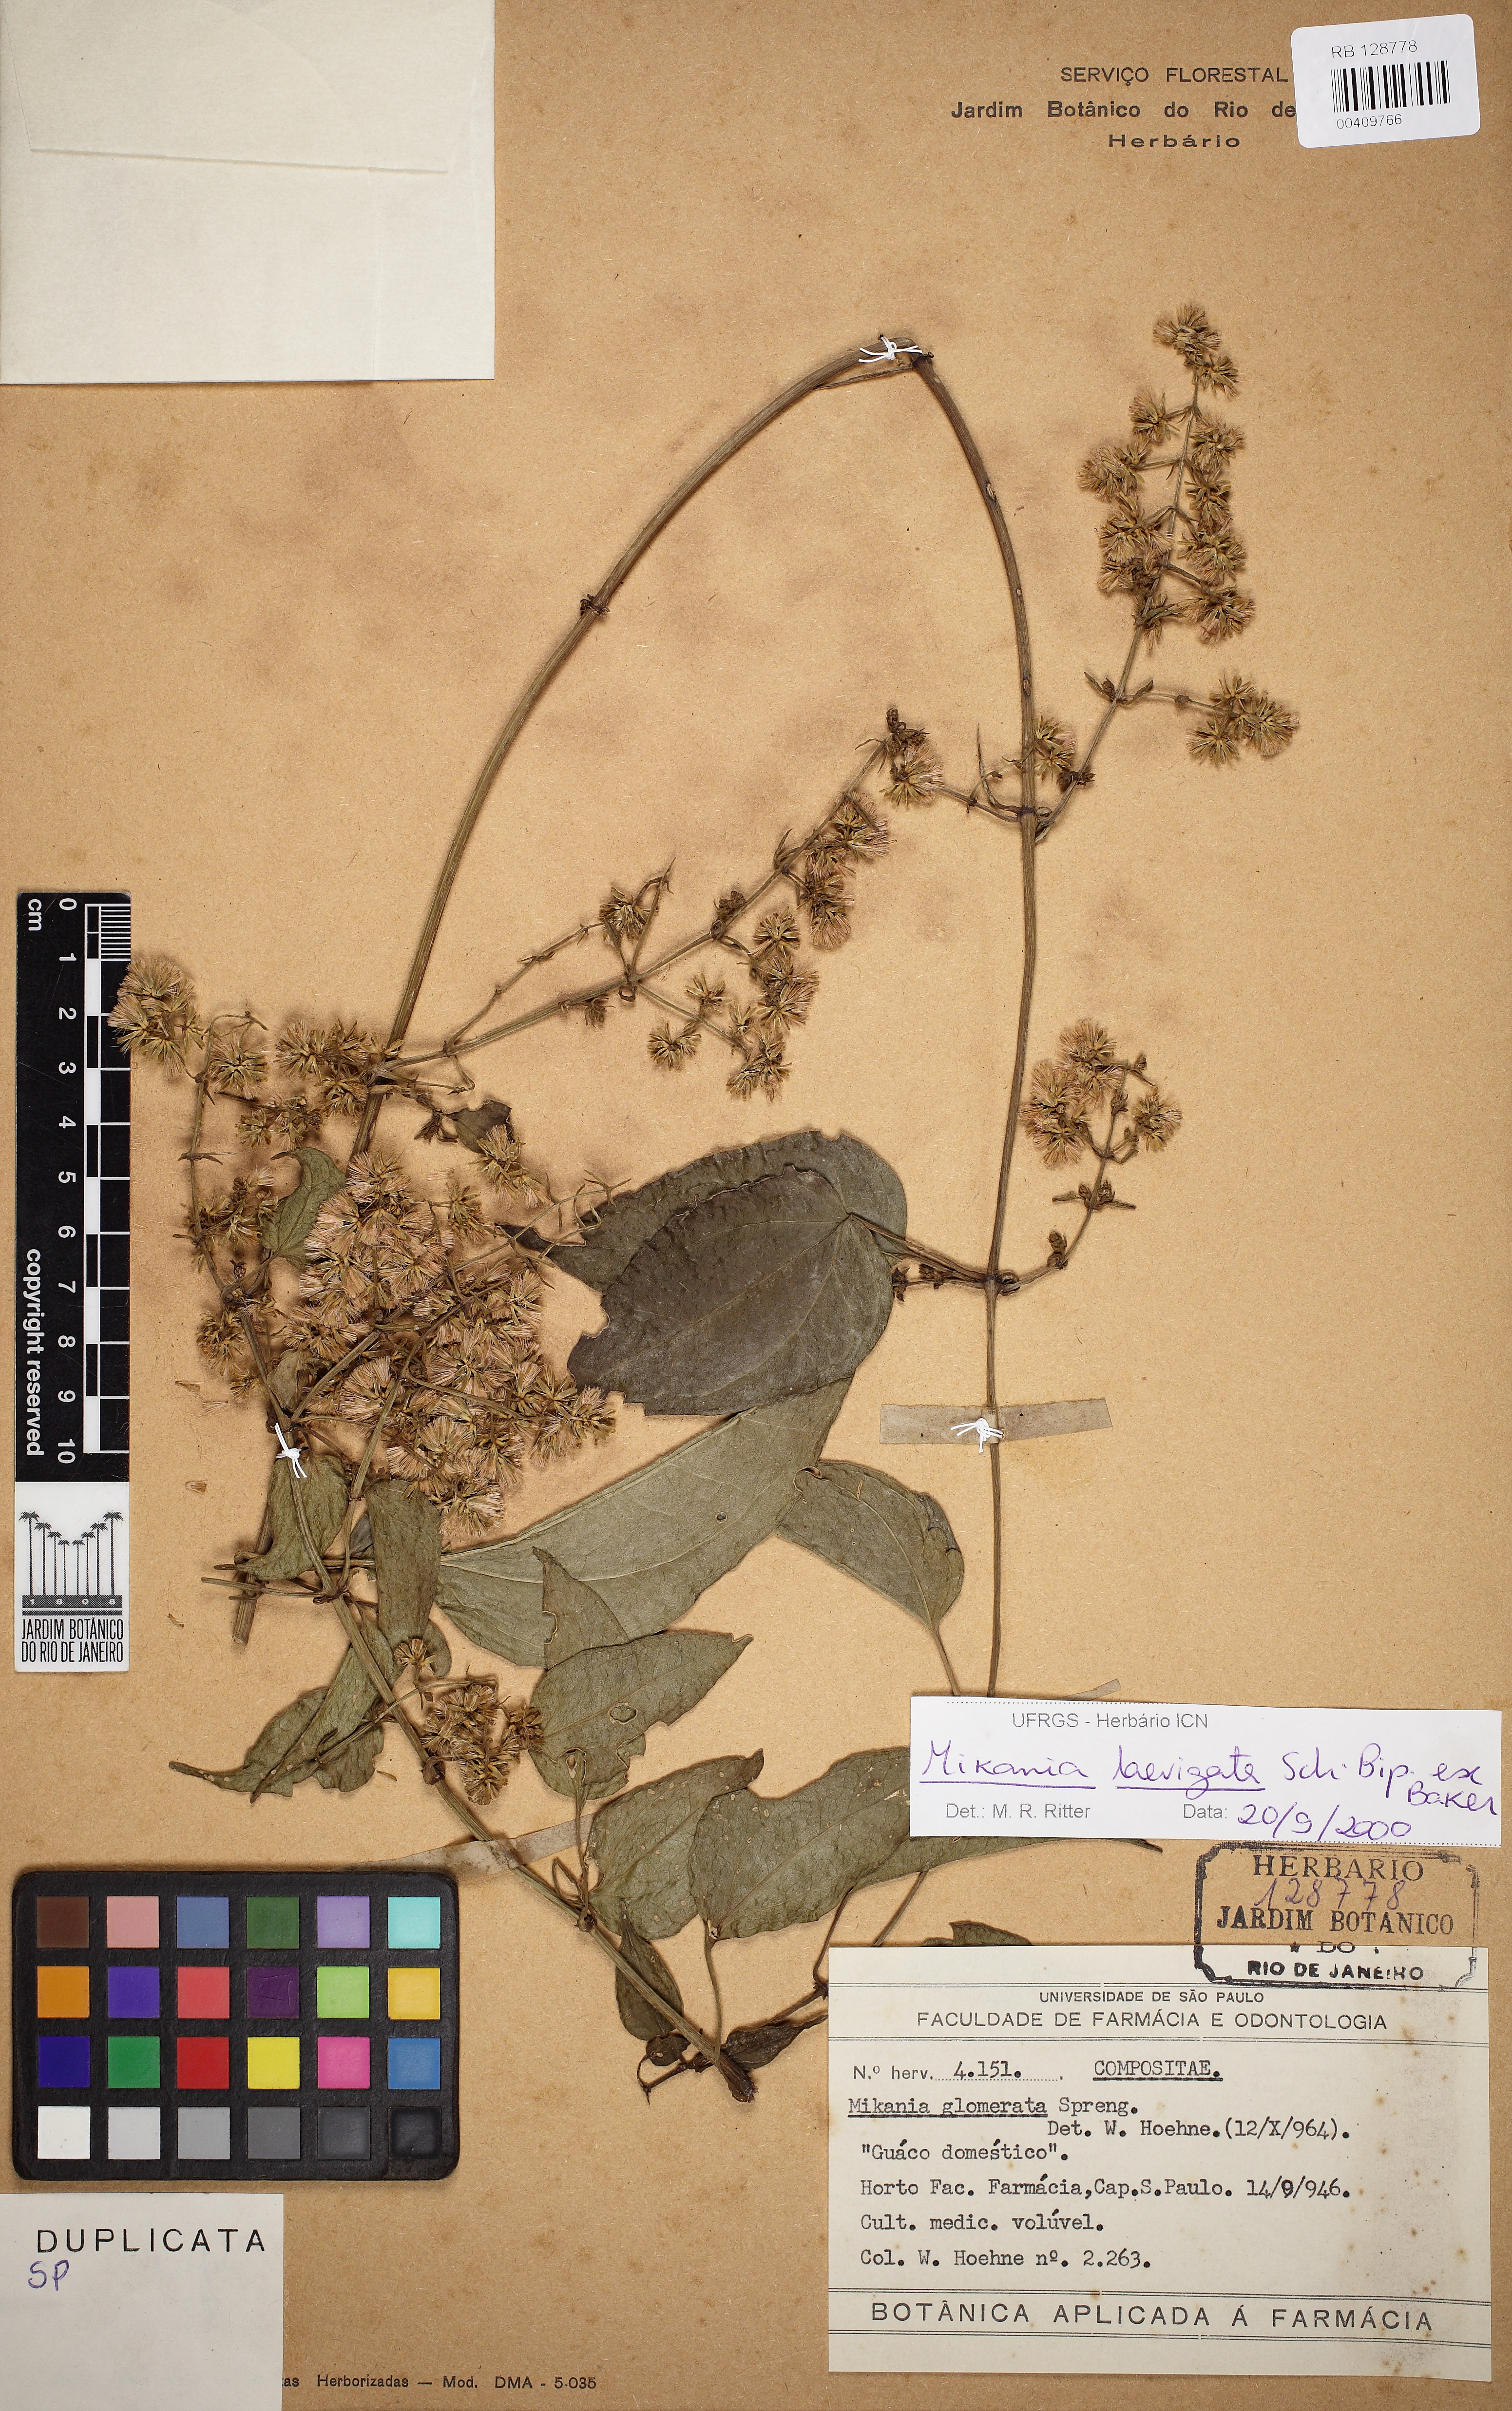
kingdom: Plantae
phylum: Tracheophyta
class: Magnoliopsida
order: Asterales
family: Asteraceae
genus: Mikania
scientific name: Mikania laevigata
